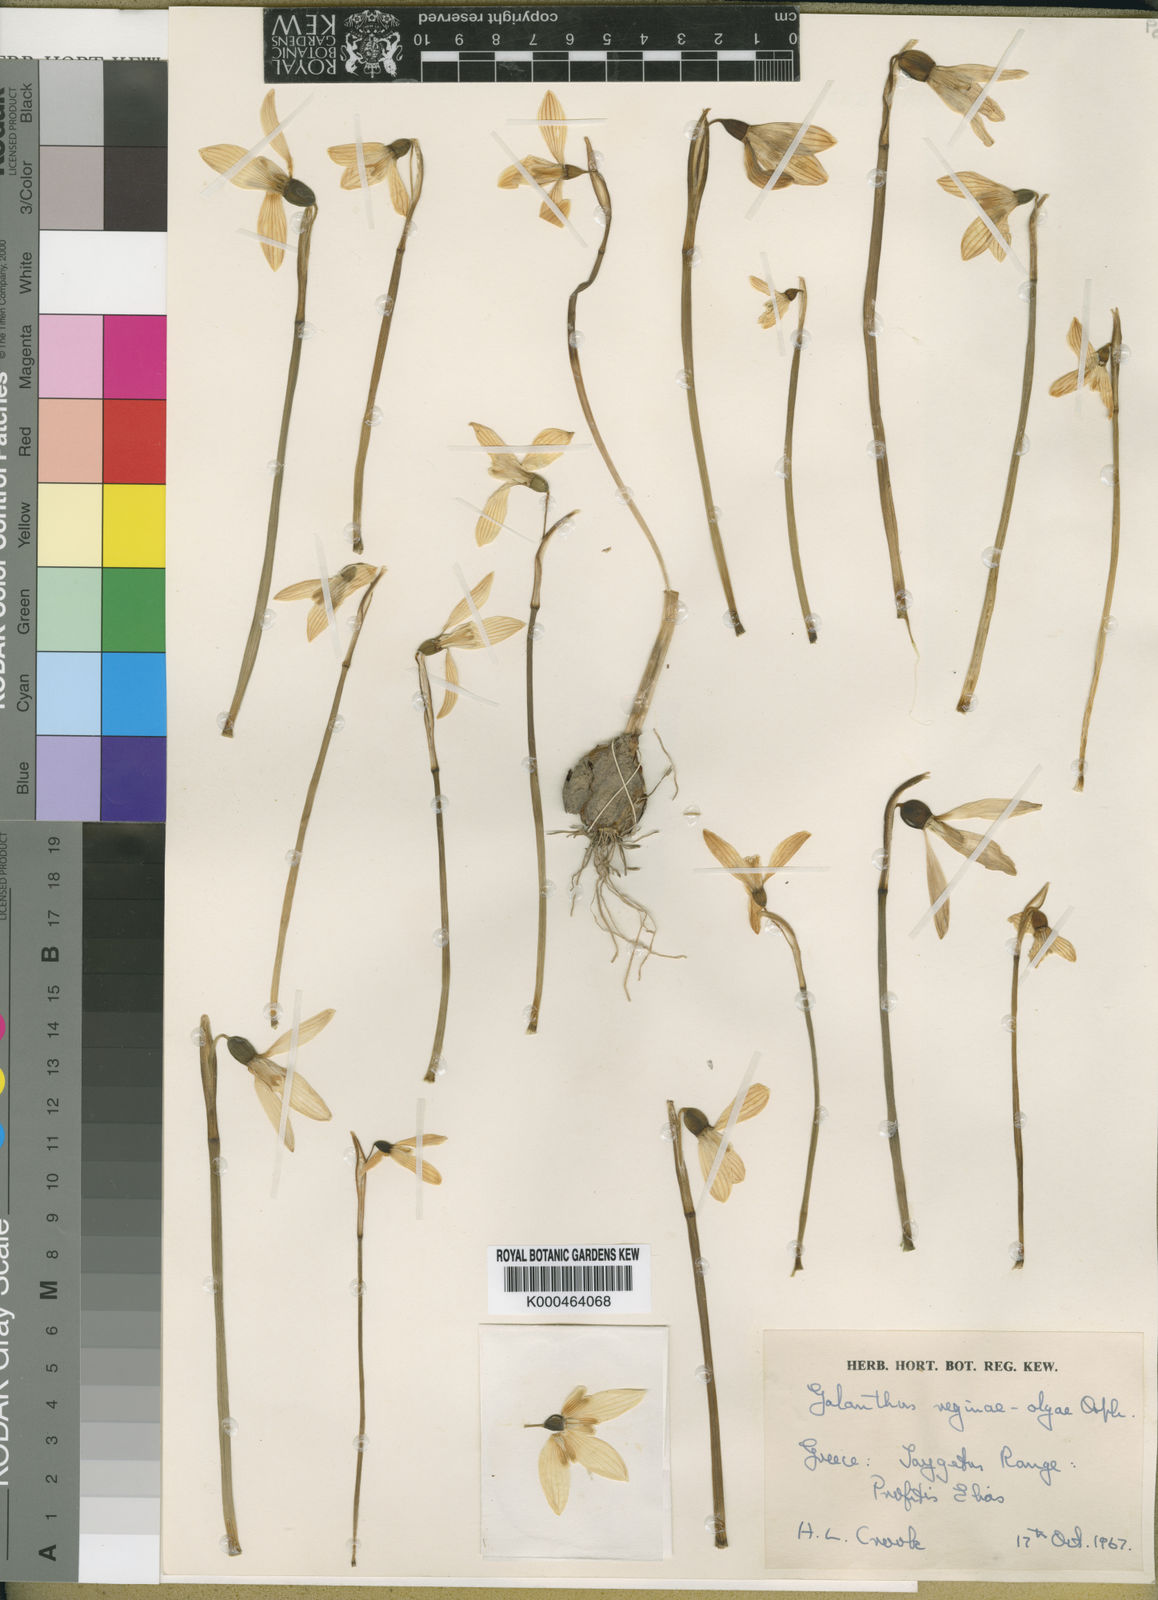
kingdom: Plantae
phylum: Tracheophyta
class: Liliopsida
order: Asparagales
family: Amaryllidaceae
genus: Galanthus
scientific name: Galanthus reginae-olgae
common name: Queen olga's snowdrop
